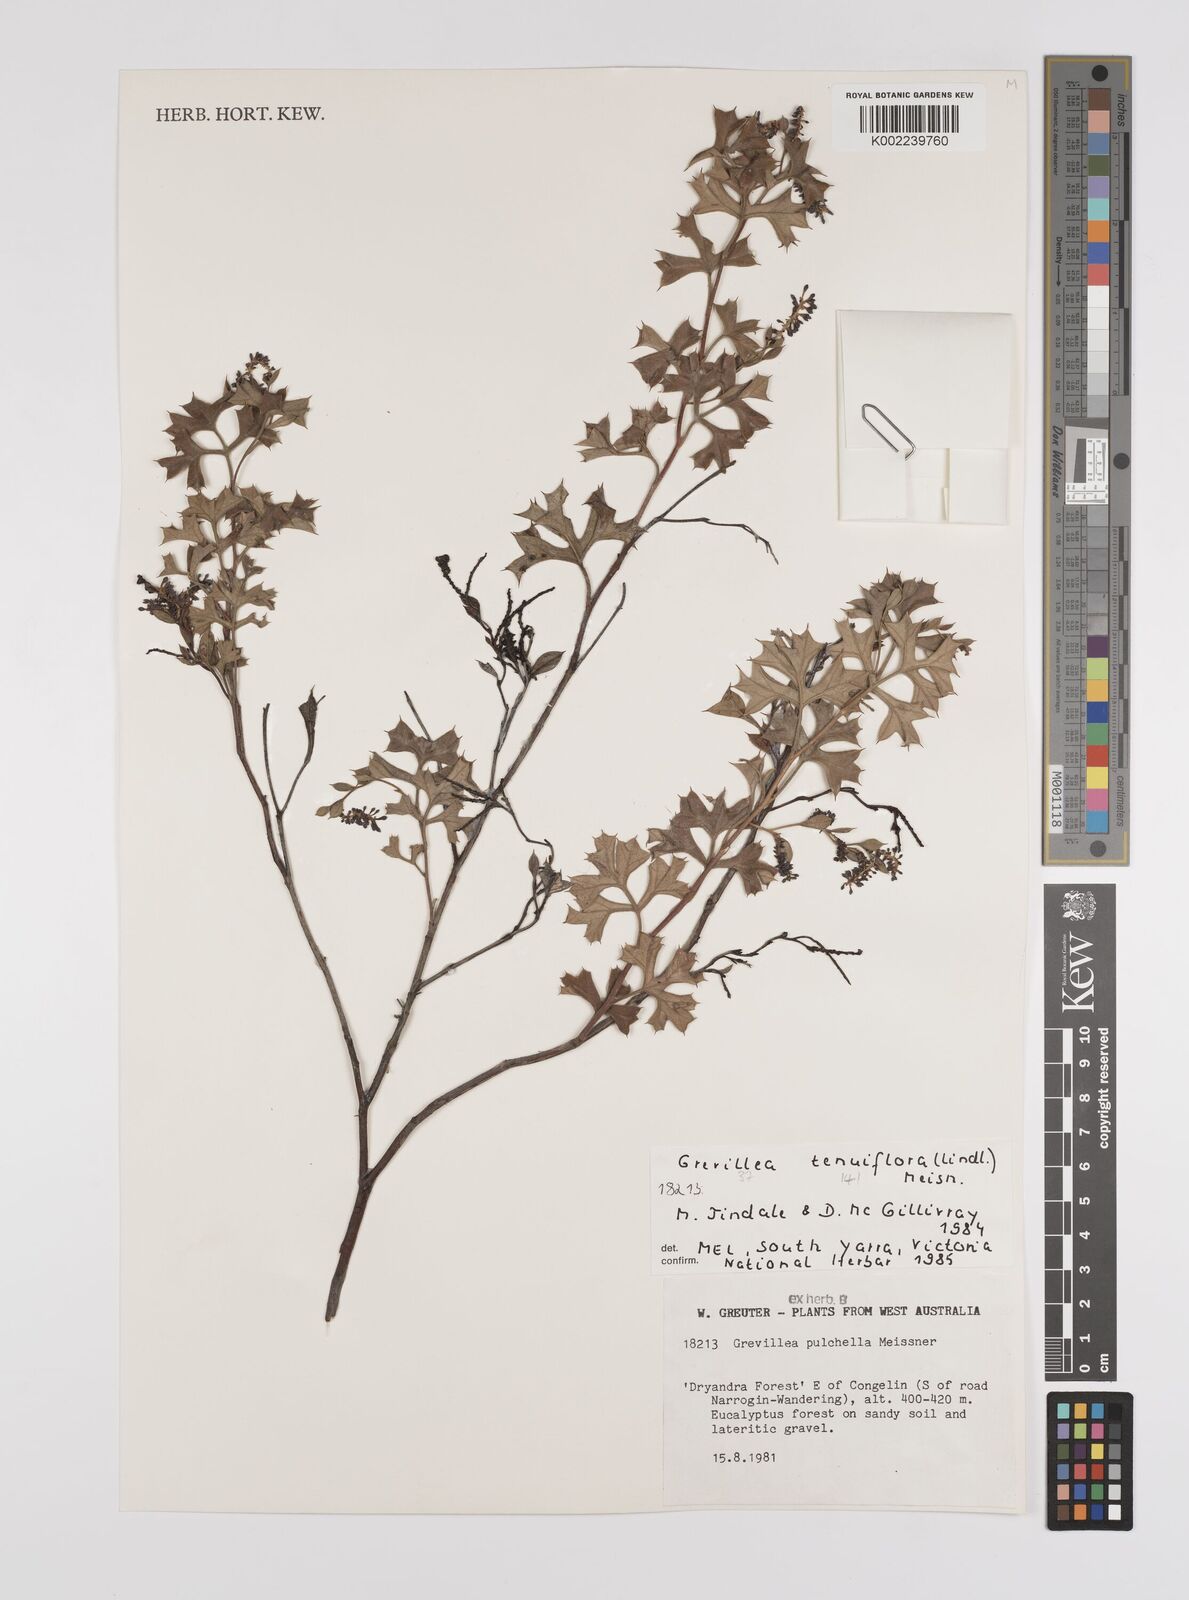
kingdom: Plantae
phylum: Tracheophyta
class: Magnoliopsida
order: Proteales
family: Proteaceae
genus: Grevillea
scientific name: Grevillea tenuiflora
